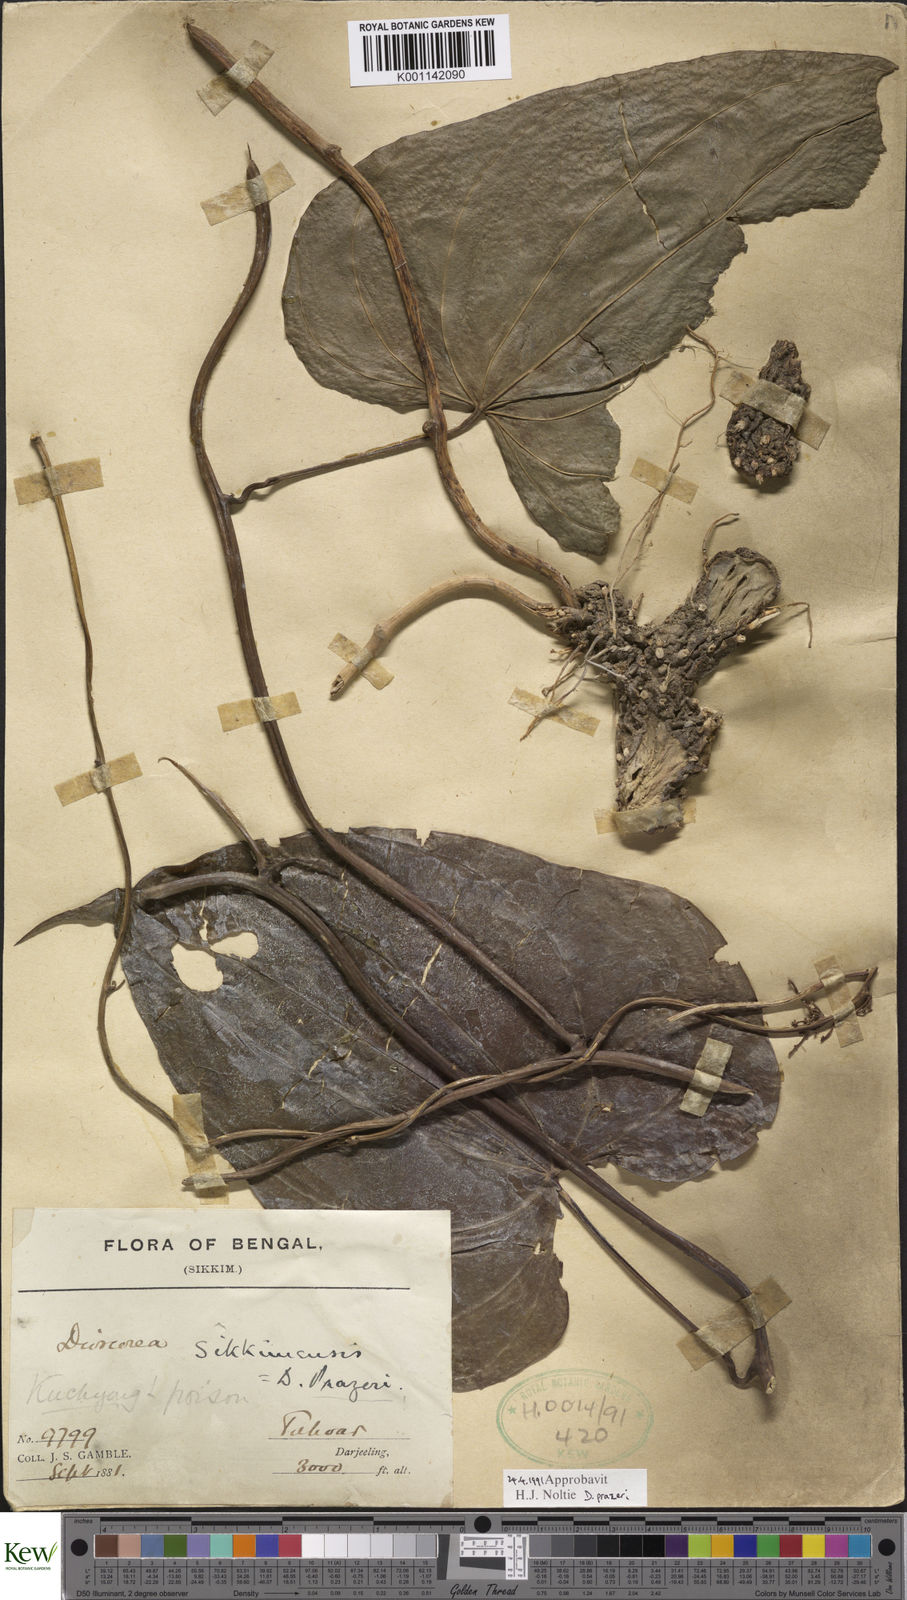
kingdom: Plantae
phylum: Tracheophyta
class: Liliopsida
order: Dioscoreales
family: Dioscoreaceae
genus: Dioscorea
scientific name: Dioscorea prazeri
